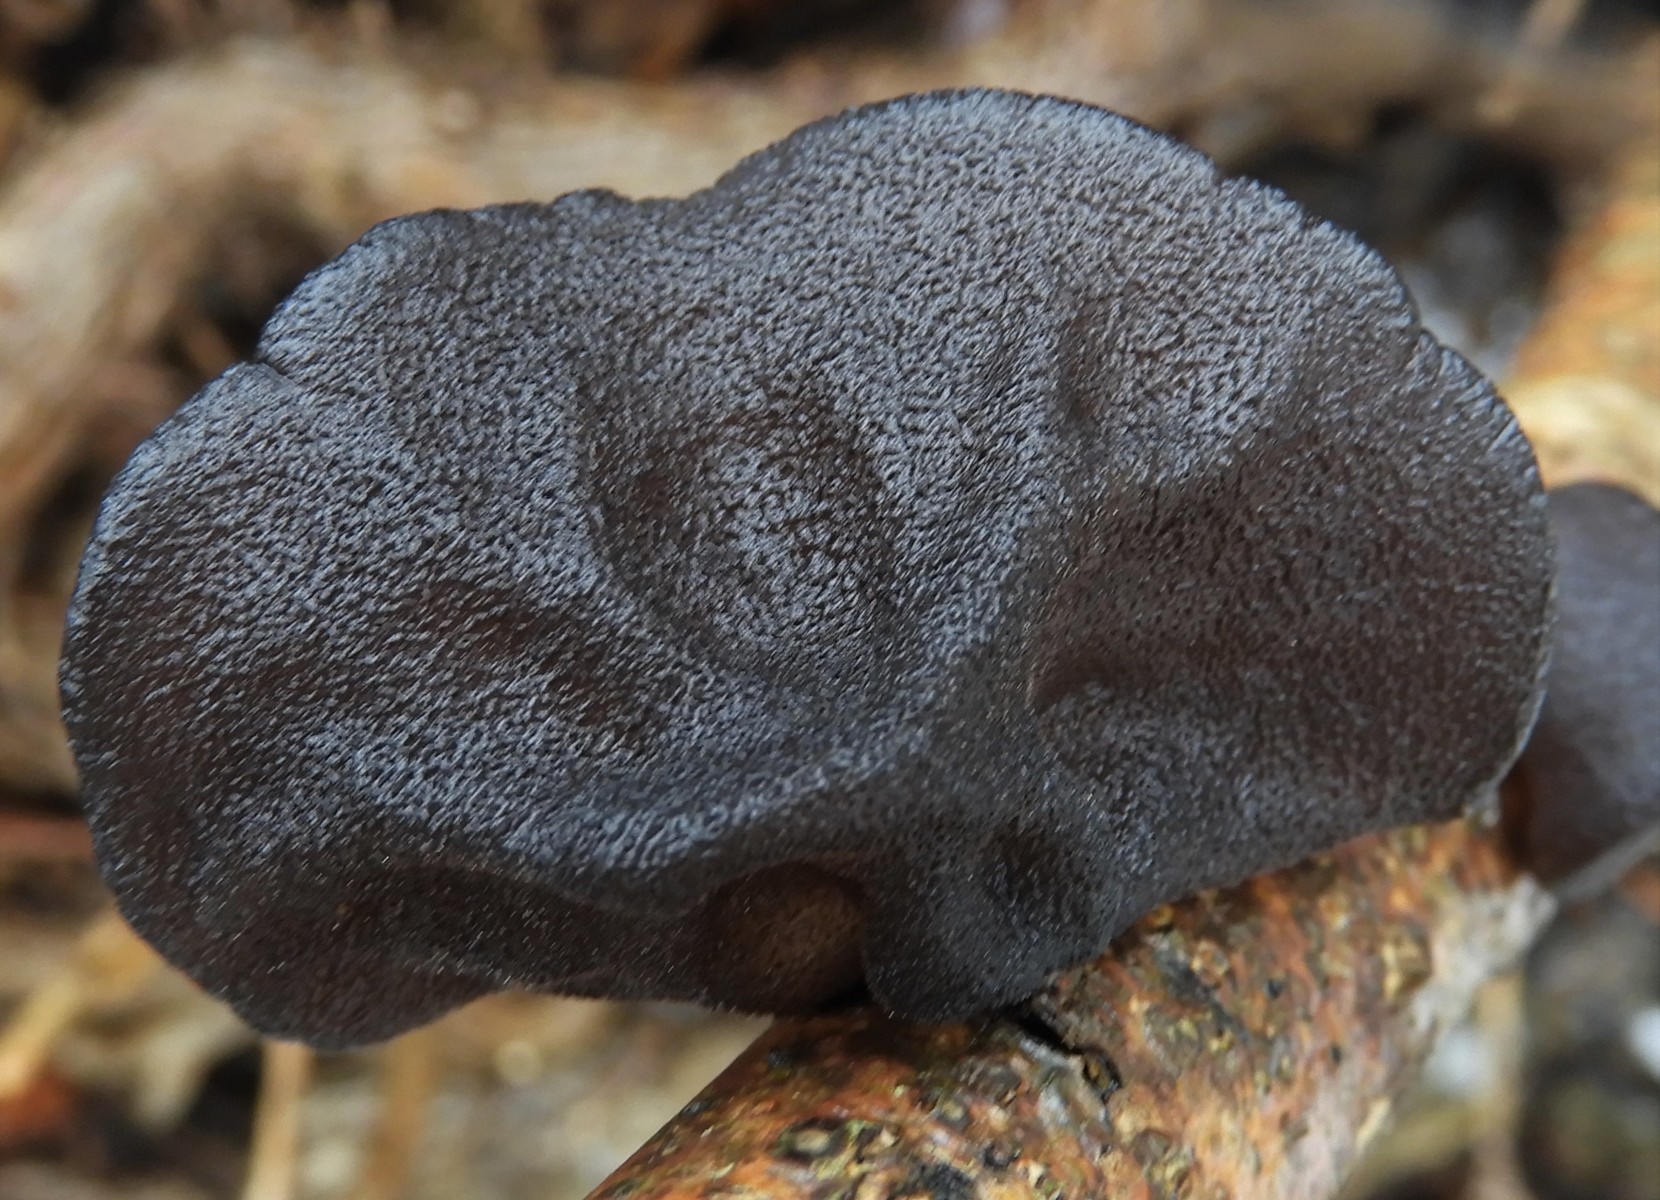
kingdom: Fungi
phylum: Basidiomycota
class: Agaricomycetes
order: Auriculariales
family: Auriculariaceae
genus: Exidia
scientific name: Exidia glandulosa
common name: ege-bævretop
